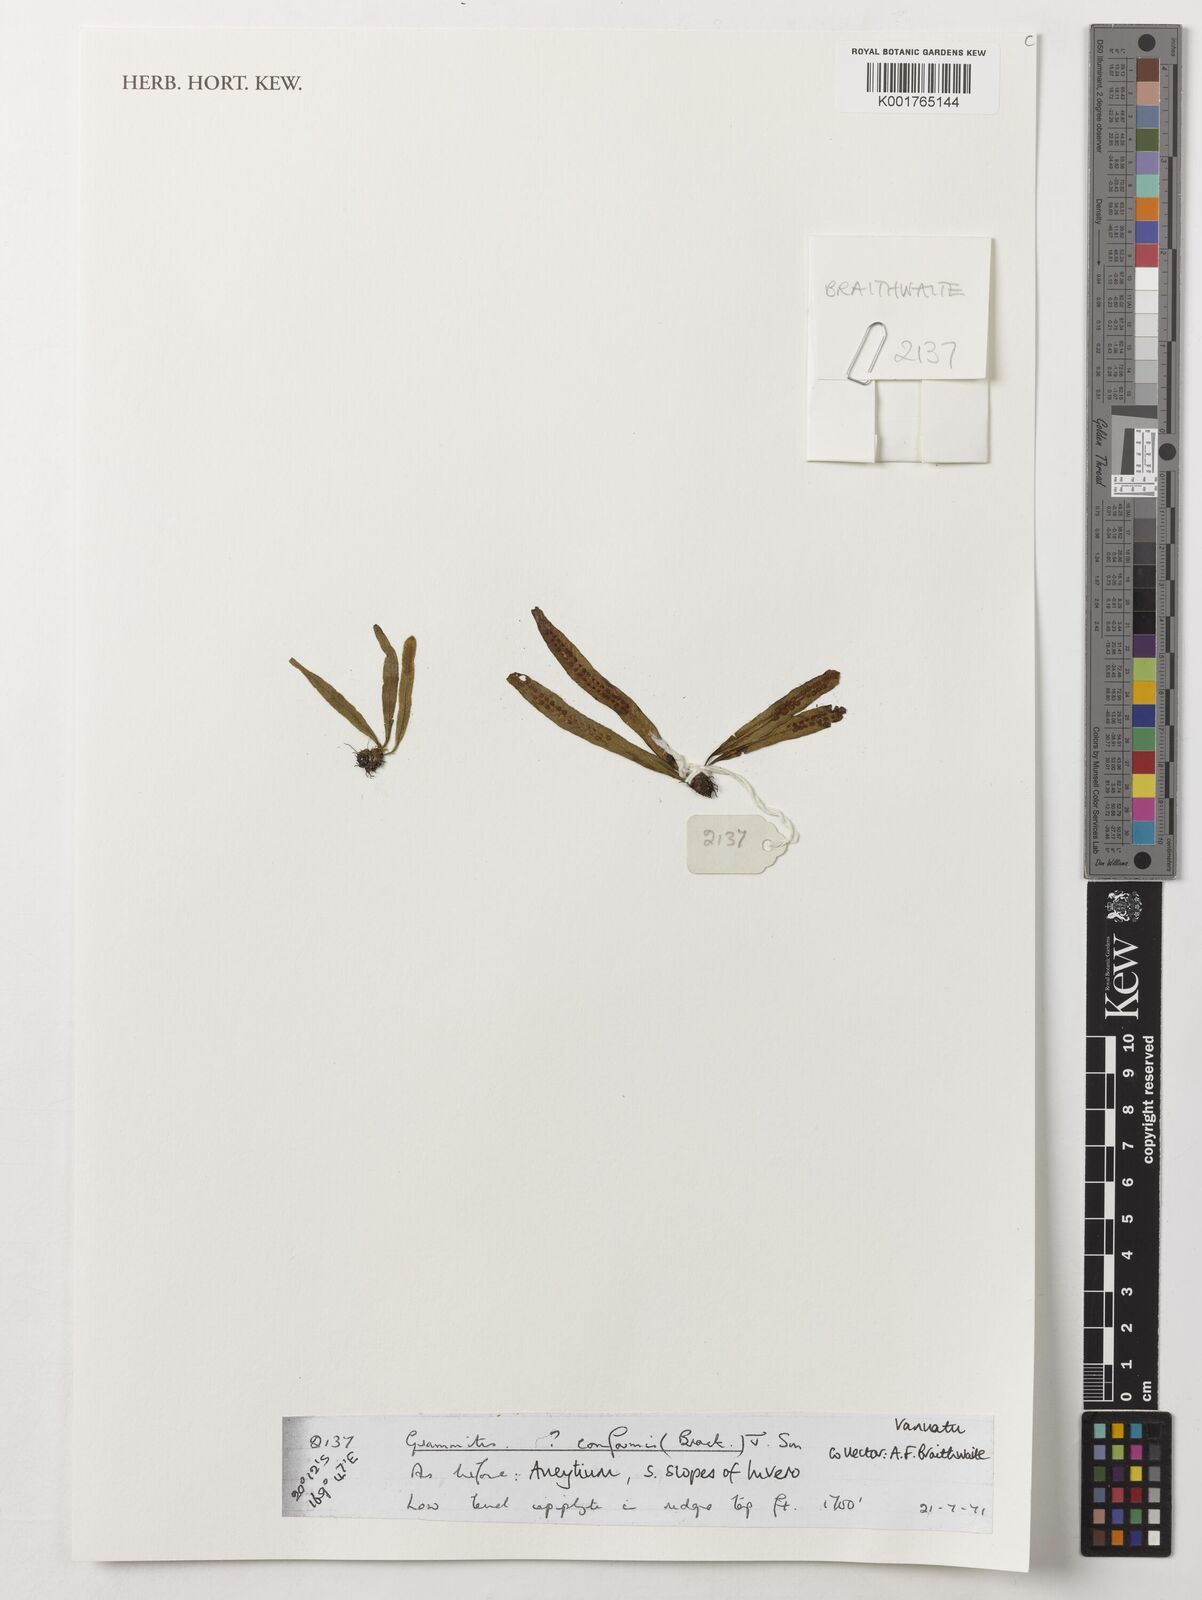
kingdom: Plantae
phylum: Tracheophyta
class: Polypodiopsida
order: Polypodiales
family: Polypodiaceae
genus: Oreogrammitis
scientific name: Oreogrammitis conformis
